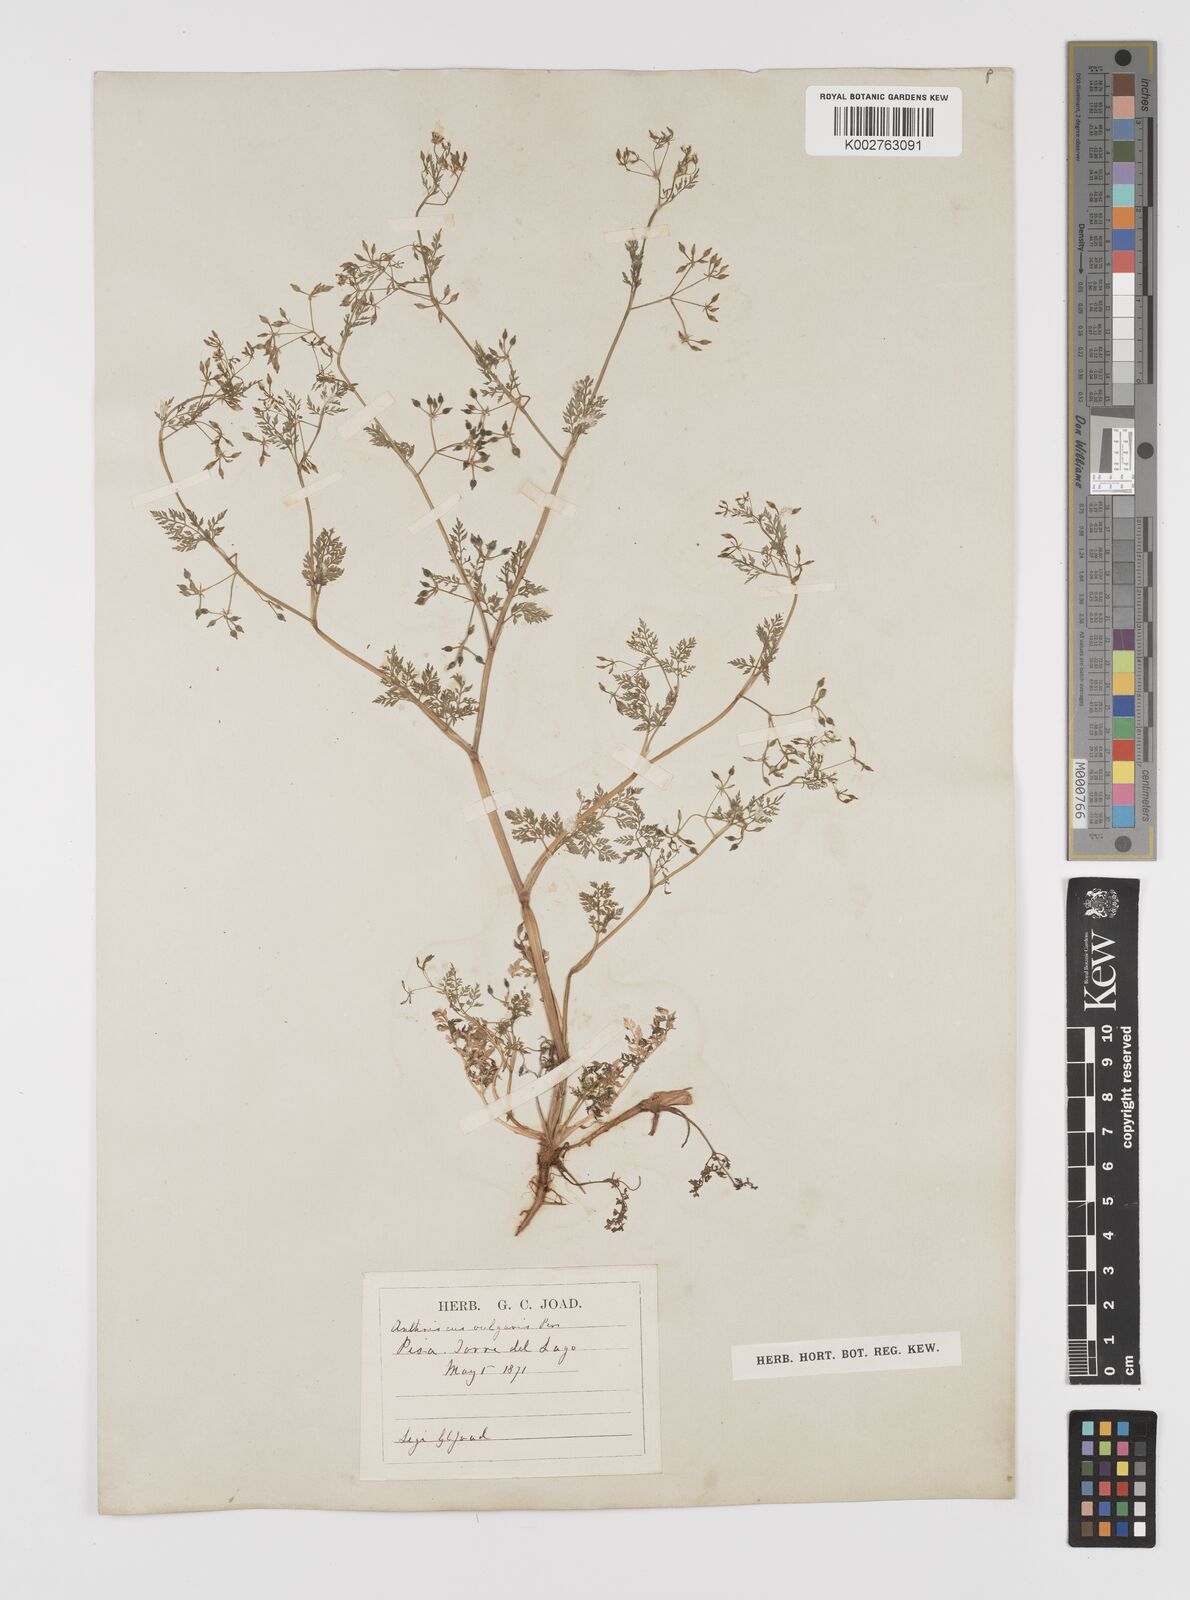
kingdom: Plantae
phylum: Tracheophyta
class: Magnoliopsida
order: Apiales
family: Apiaceae
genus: Anthriscus
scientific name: Anthriscus caucalis
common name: Bur chervil
